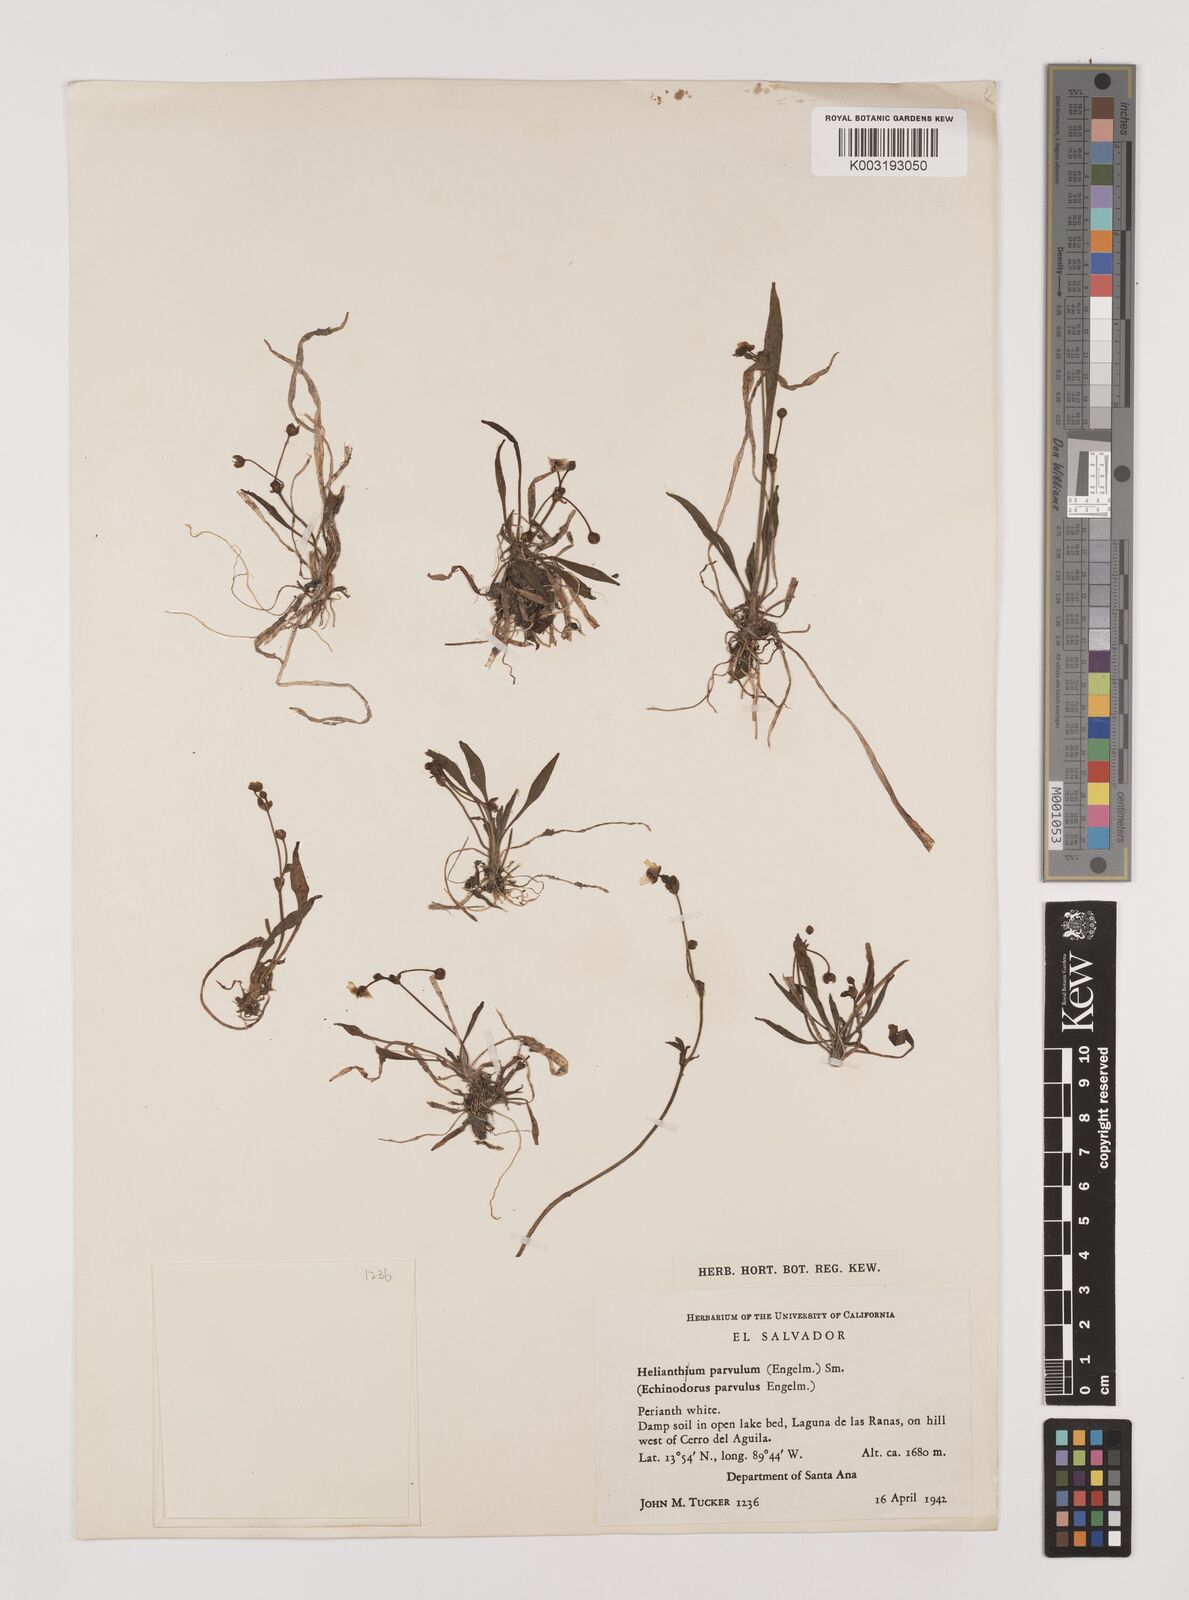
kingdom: Plantae
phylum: Tracheophyta
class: Liliopsida
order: Alismatales
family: Alismataceae
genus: Helanthium
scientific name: Helanthium tenellum
